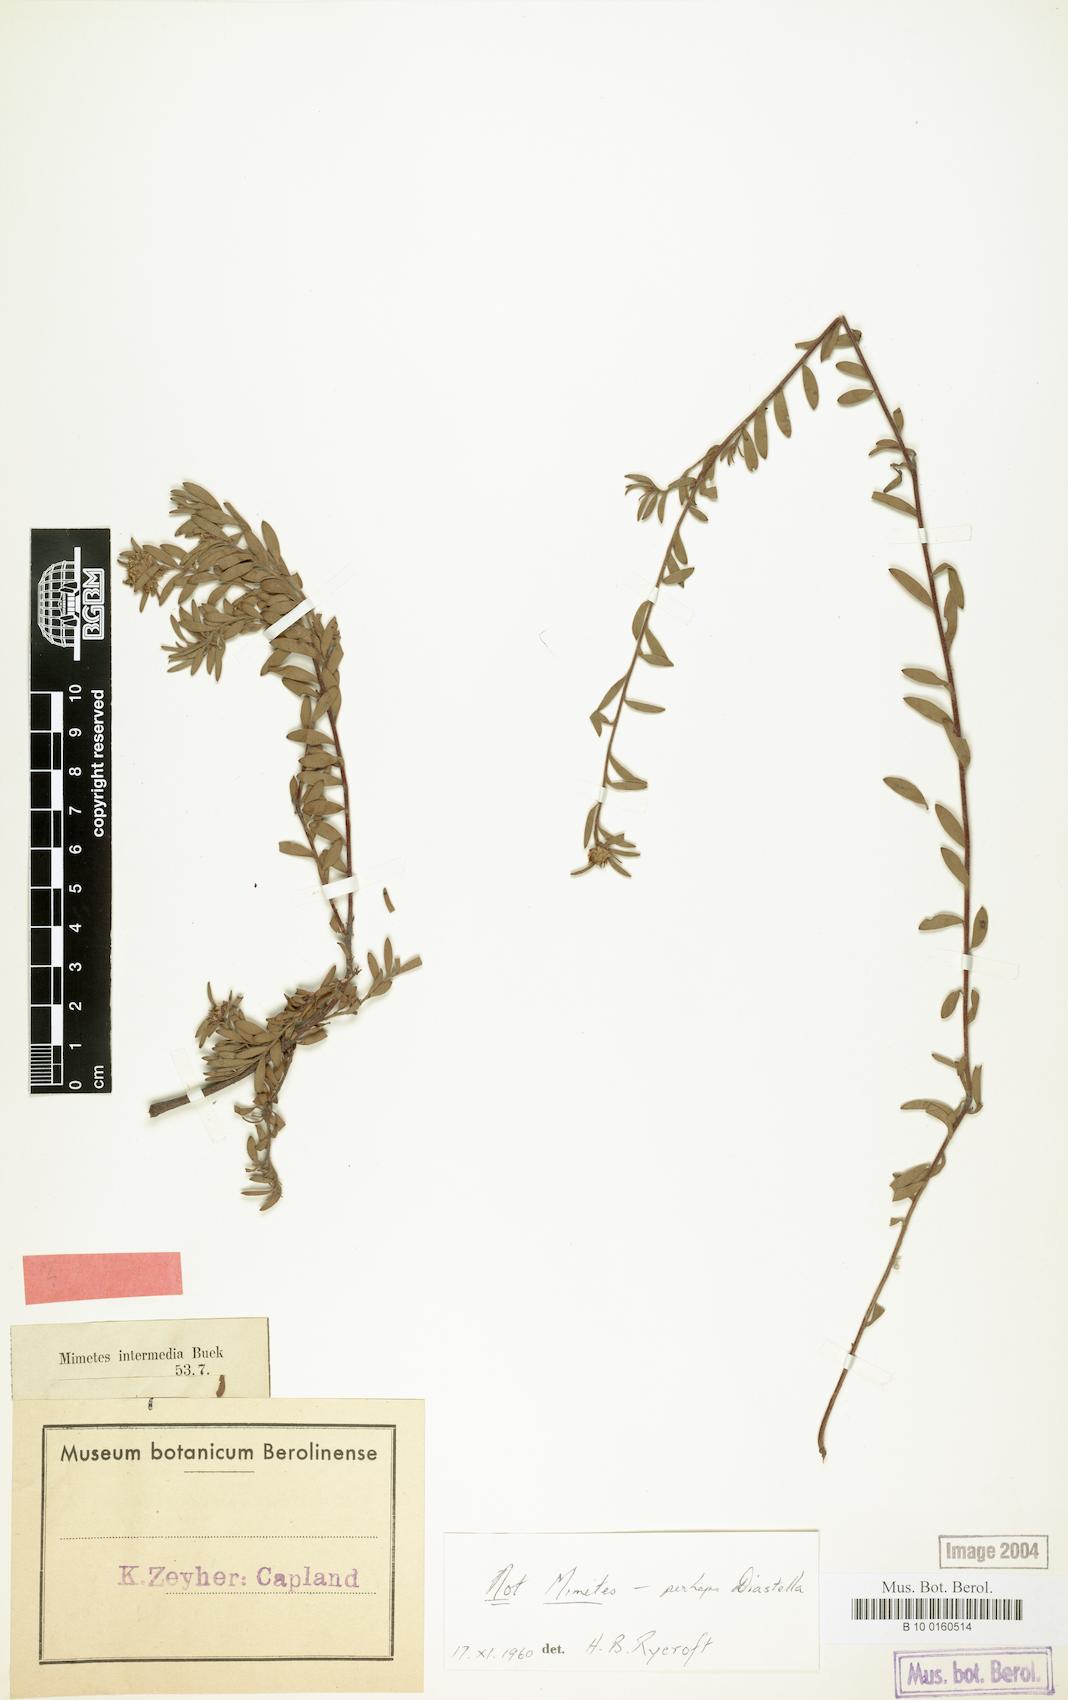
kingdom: Plantae
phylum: Tracheophyta
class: Magnoliopsida
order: Proteales
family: Proteaceae
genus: Diastella
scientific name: Diastella divaricata
